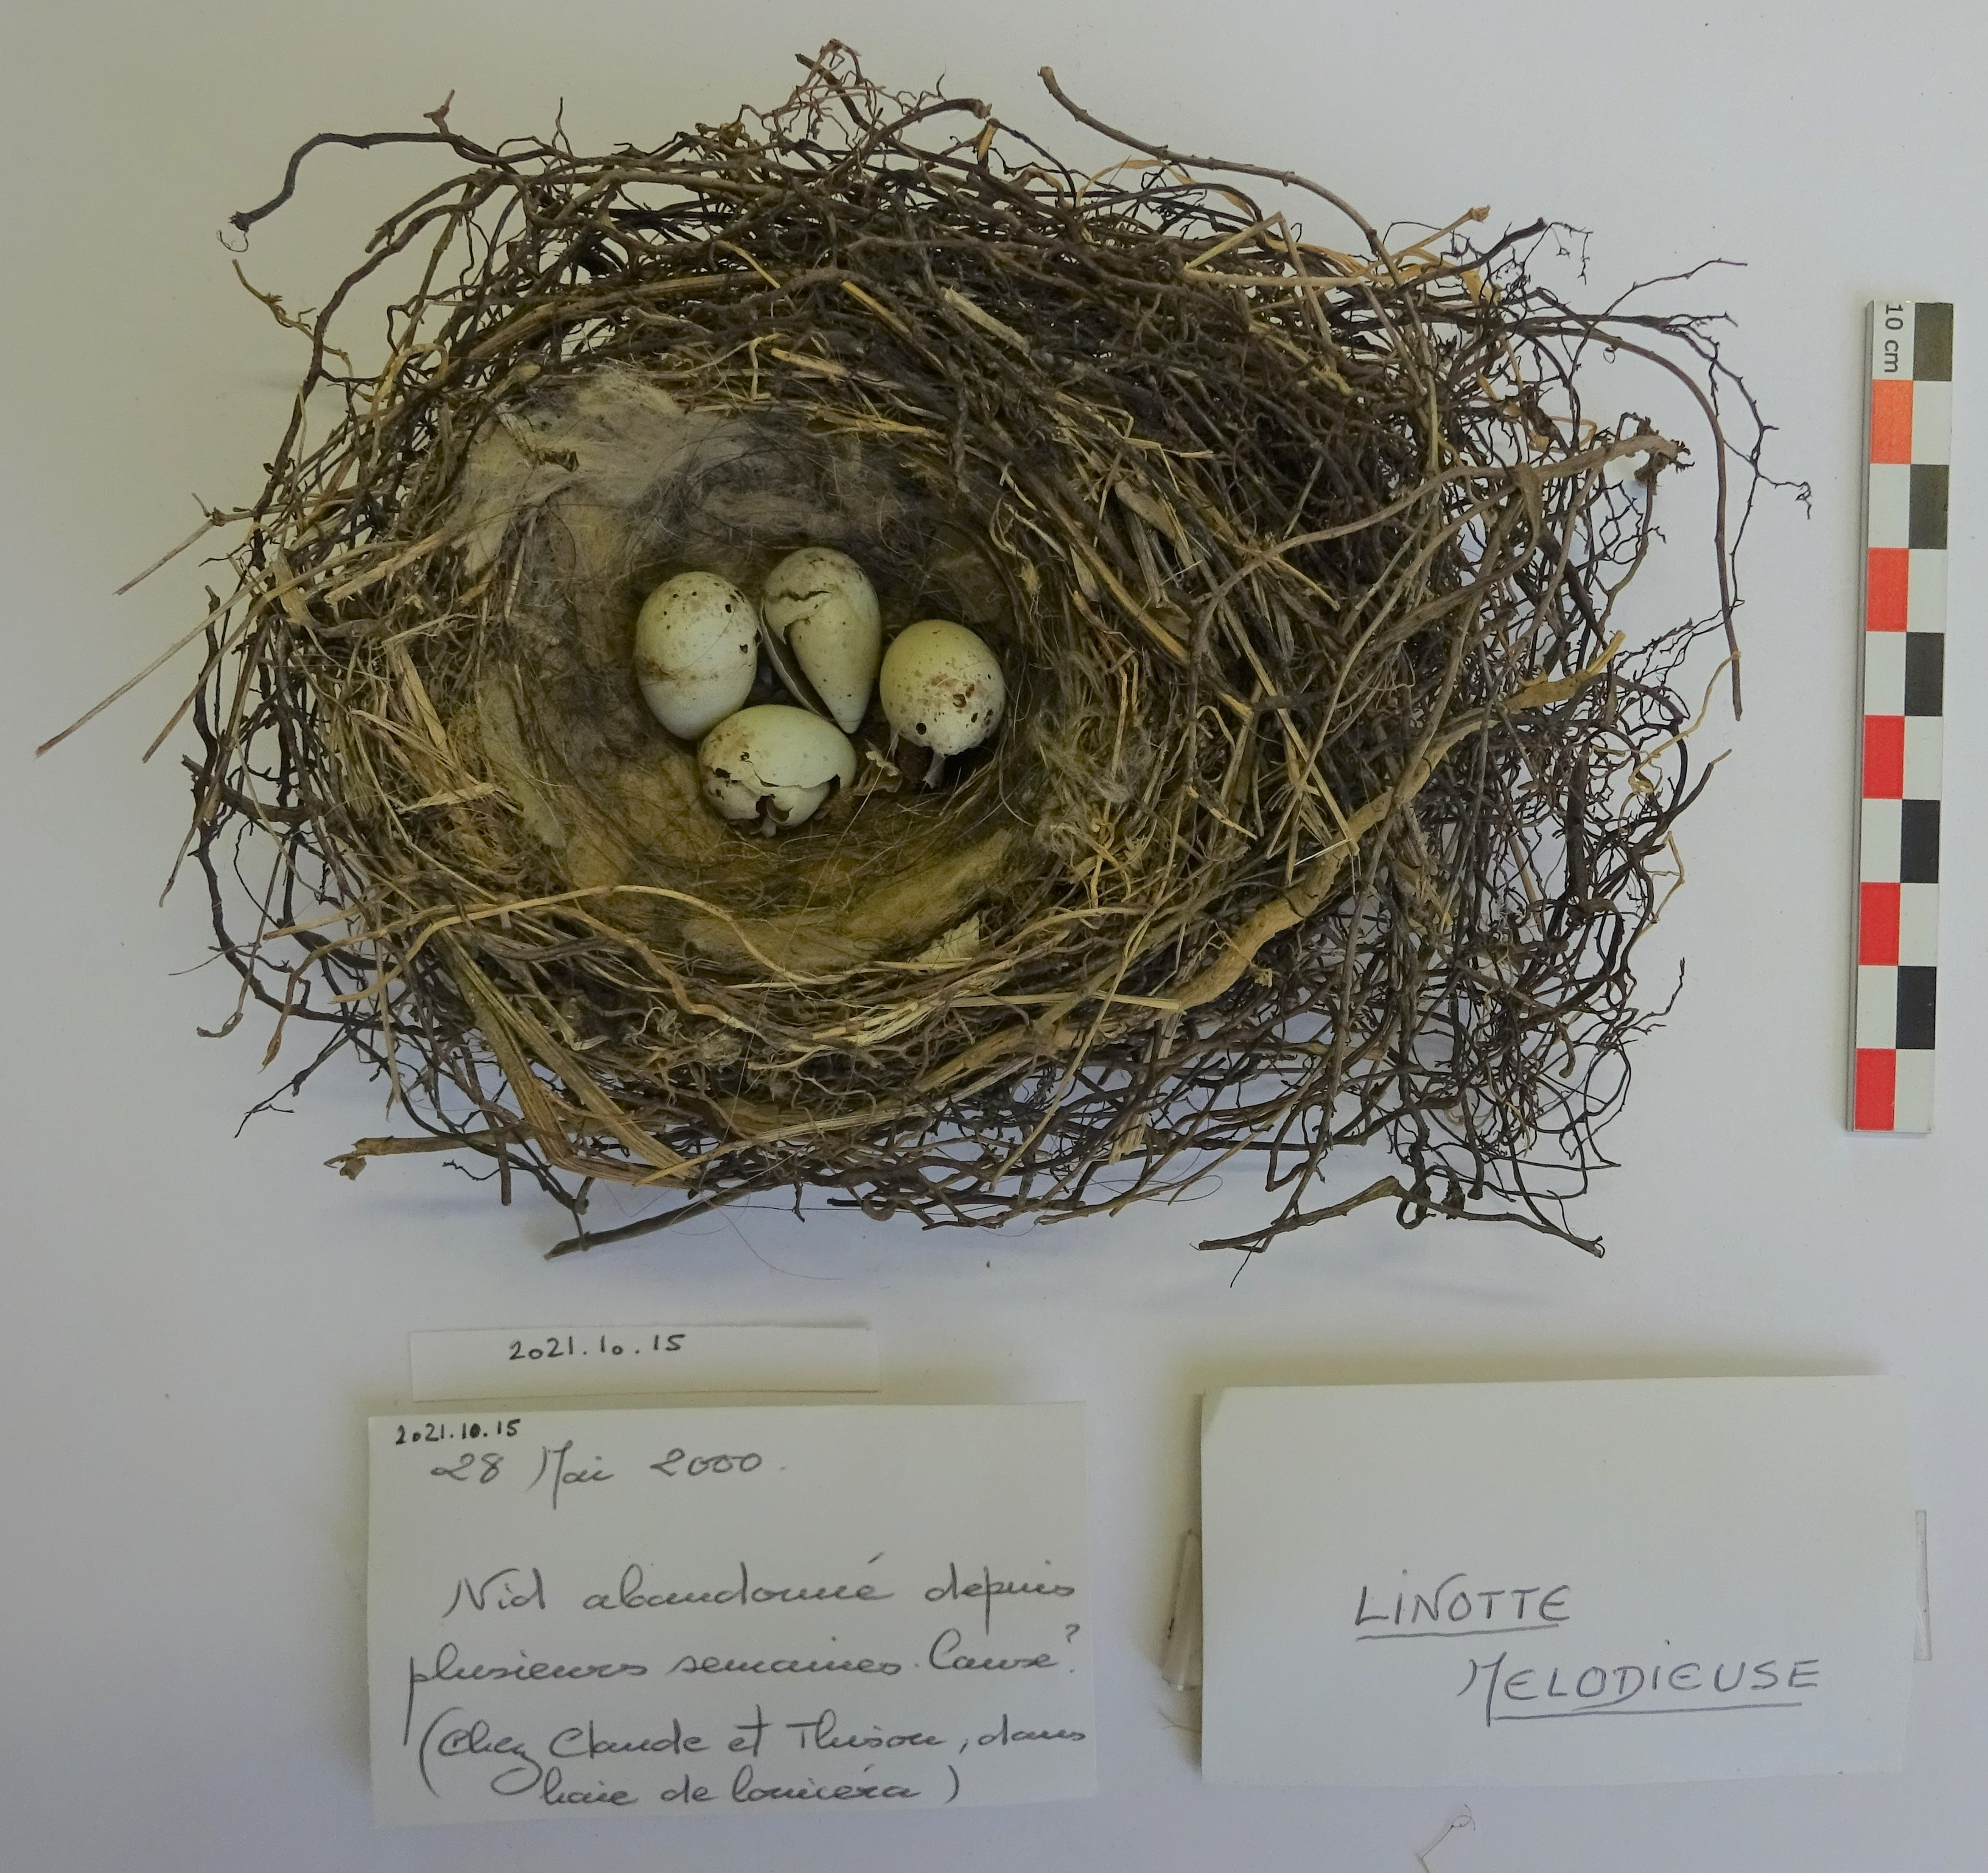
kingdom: Animalia
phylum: Chordata
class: Aves
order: Passeriformes
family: Fringillidae
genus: Linaria
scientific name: Linaria cannabina
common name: Common linnet
